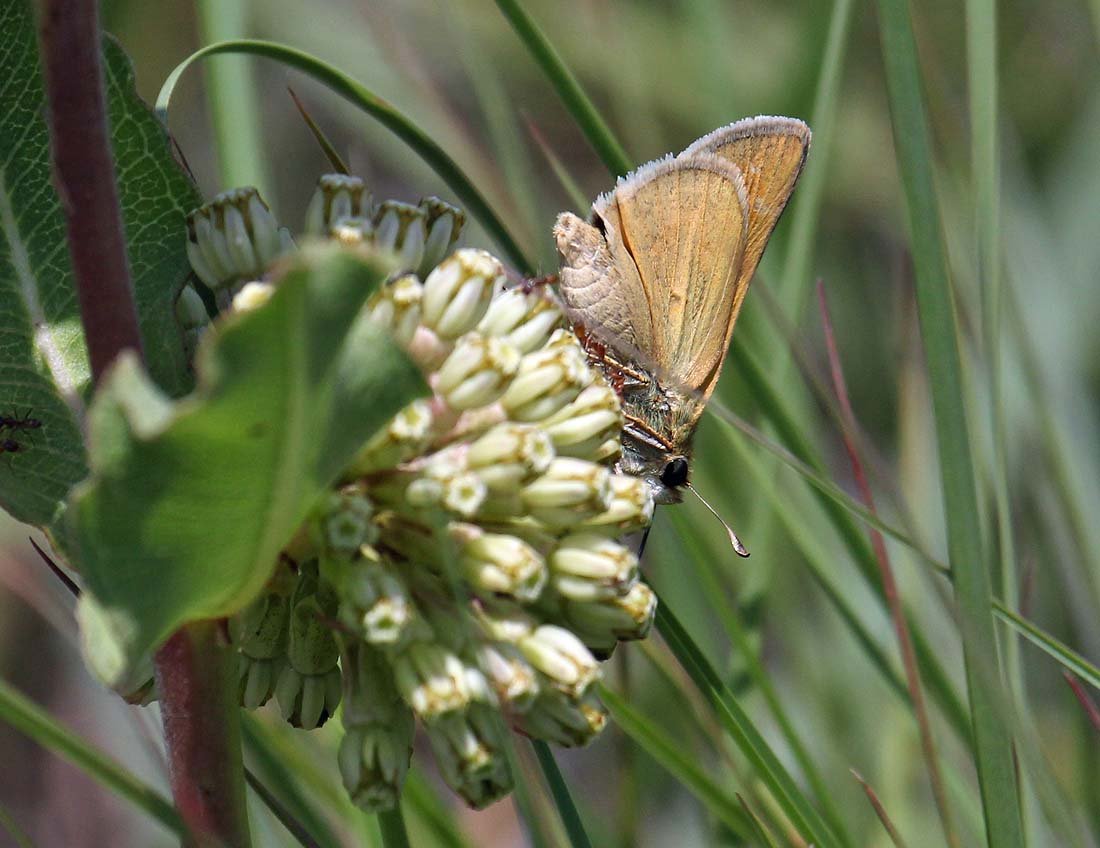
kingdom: Animalia
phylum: Arthropoda
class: Insecta
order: Lepidoptera
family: Hesperiidae
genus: Hesperia
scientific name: Hesperia ottoe
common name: Ottoe Skipper
